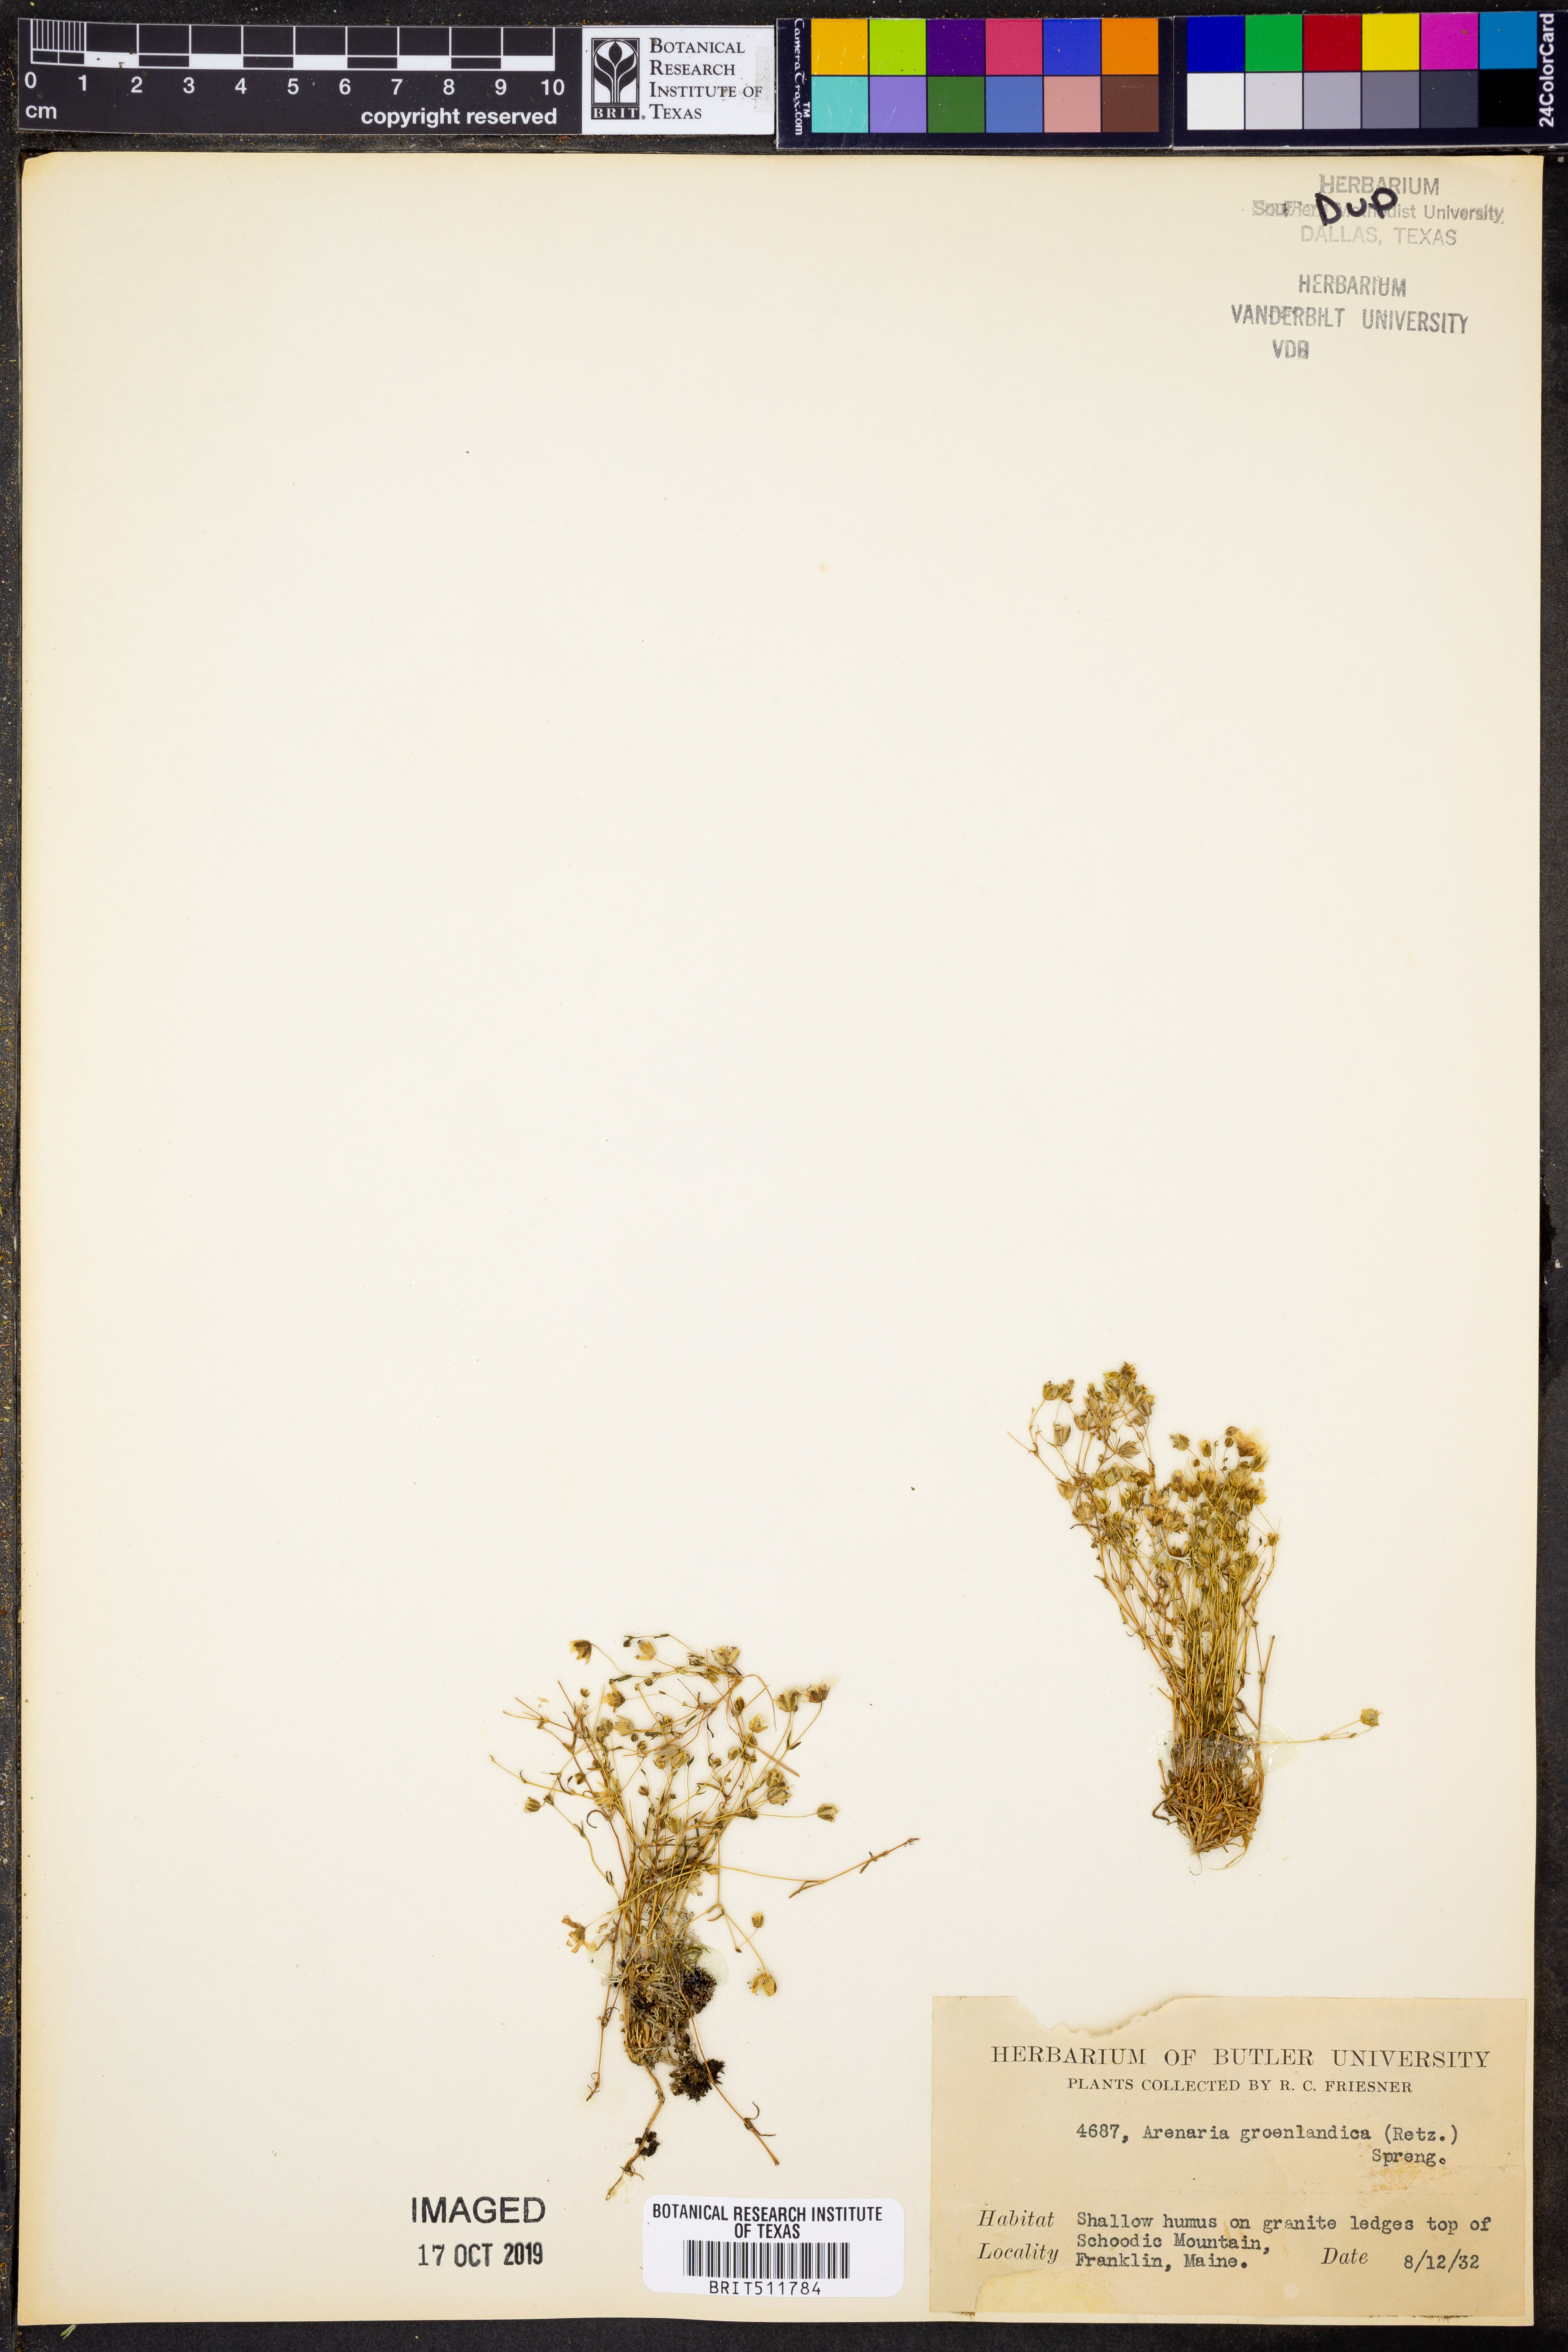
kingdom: Plantae
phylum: Tracheophyta
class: Magnoliopsida
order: Caryophyllales
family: Caryophyllaceae
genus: Geocarpon
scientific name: Geocarpon groenlandicum
